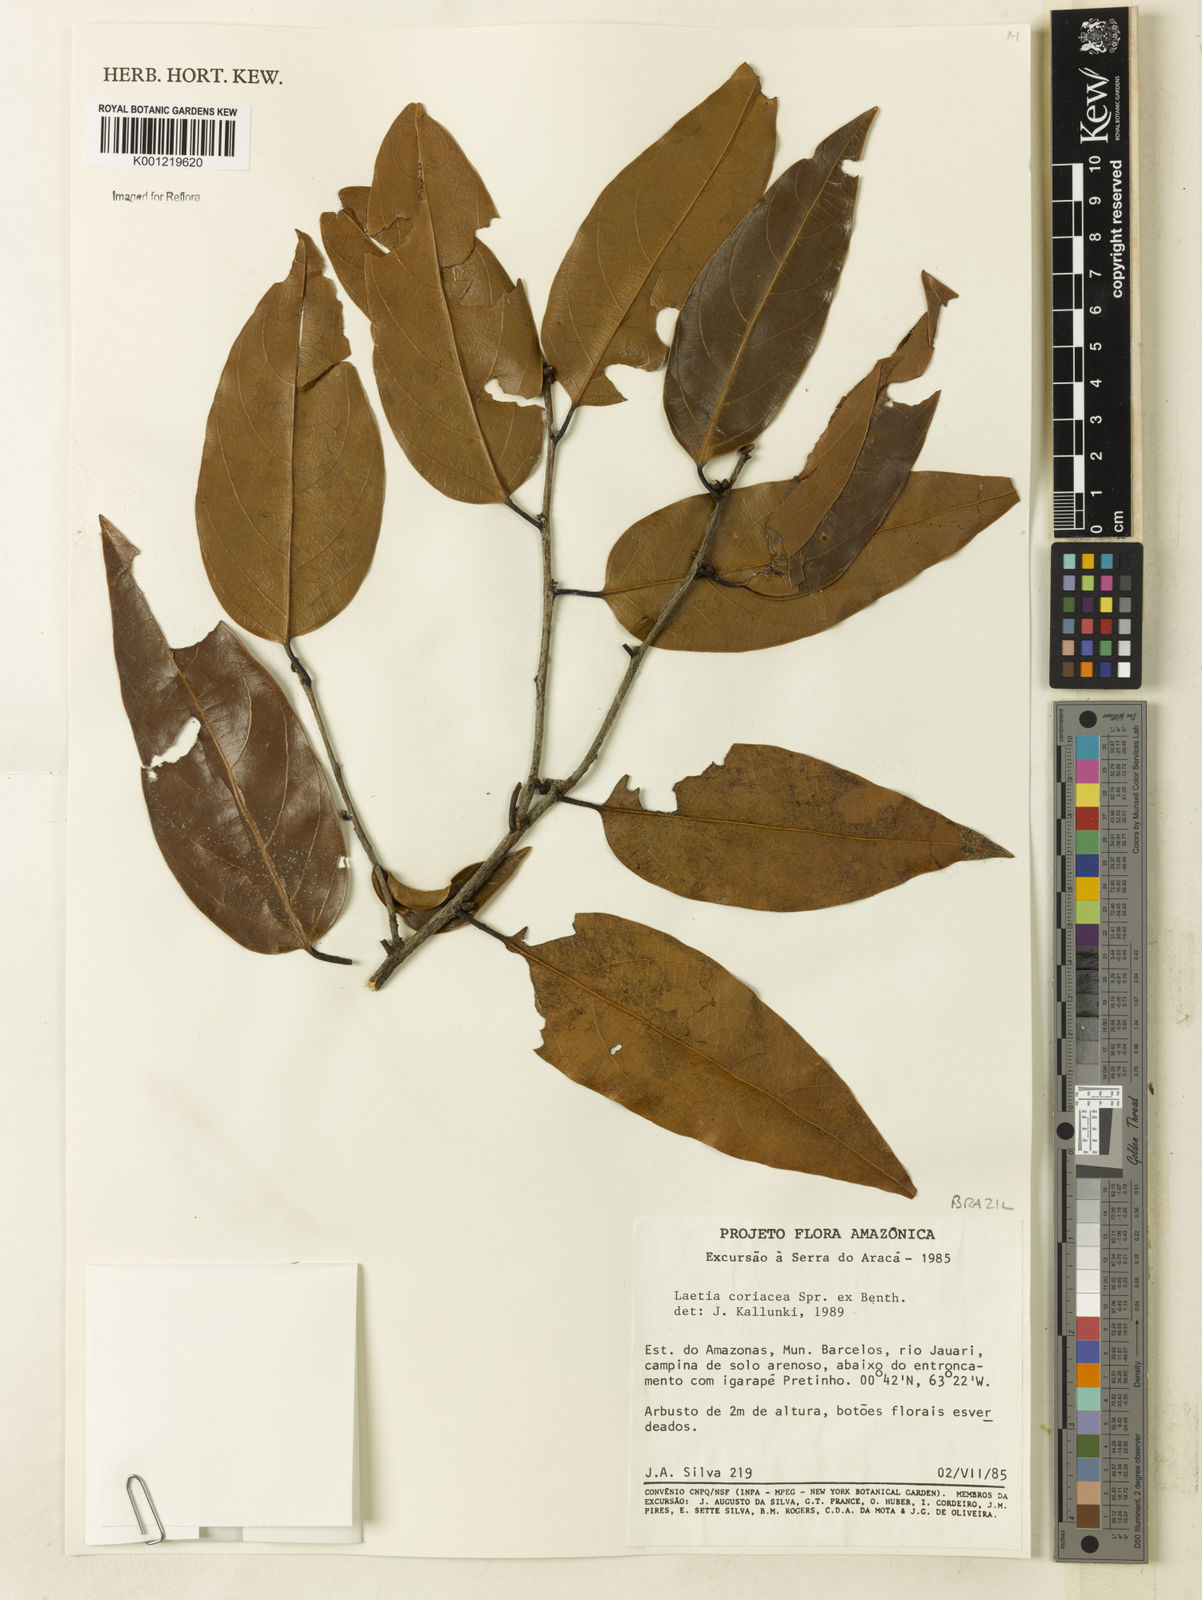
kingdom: Plantae
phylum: Tracheophyta
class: Magnoliopsida
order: Malpighiales
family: Salicaceae
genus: Irenodendron
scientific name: Irenodendron coriaceum
